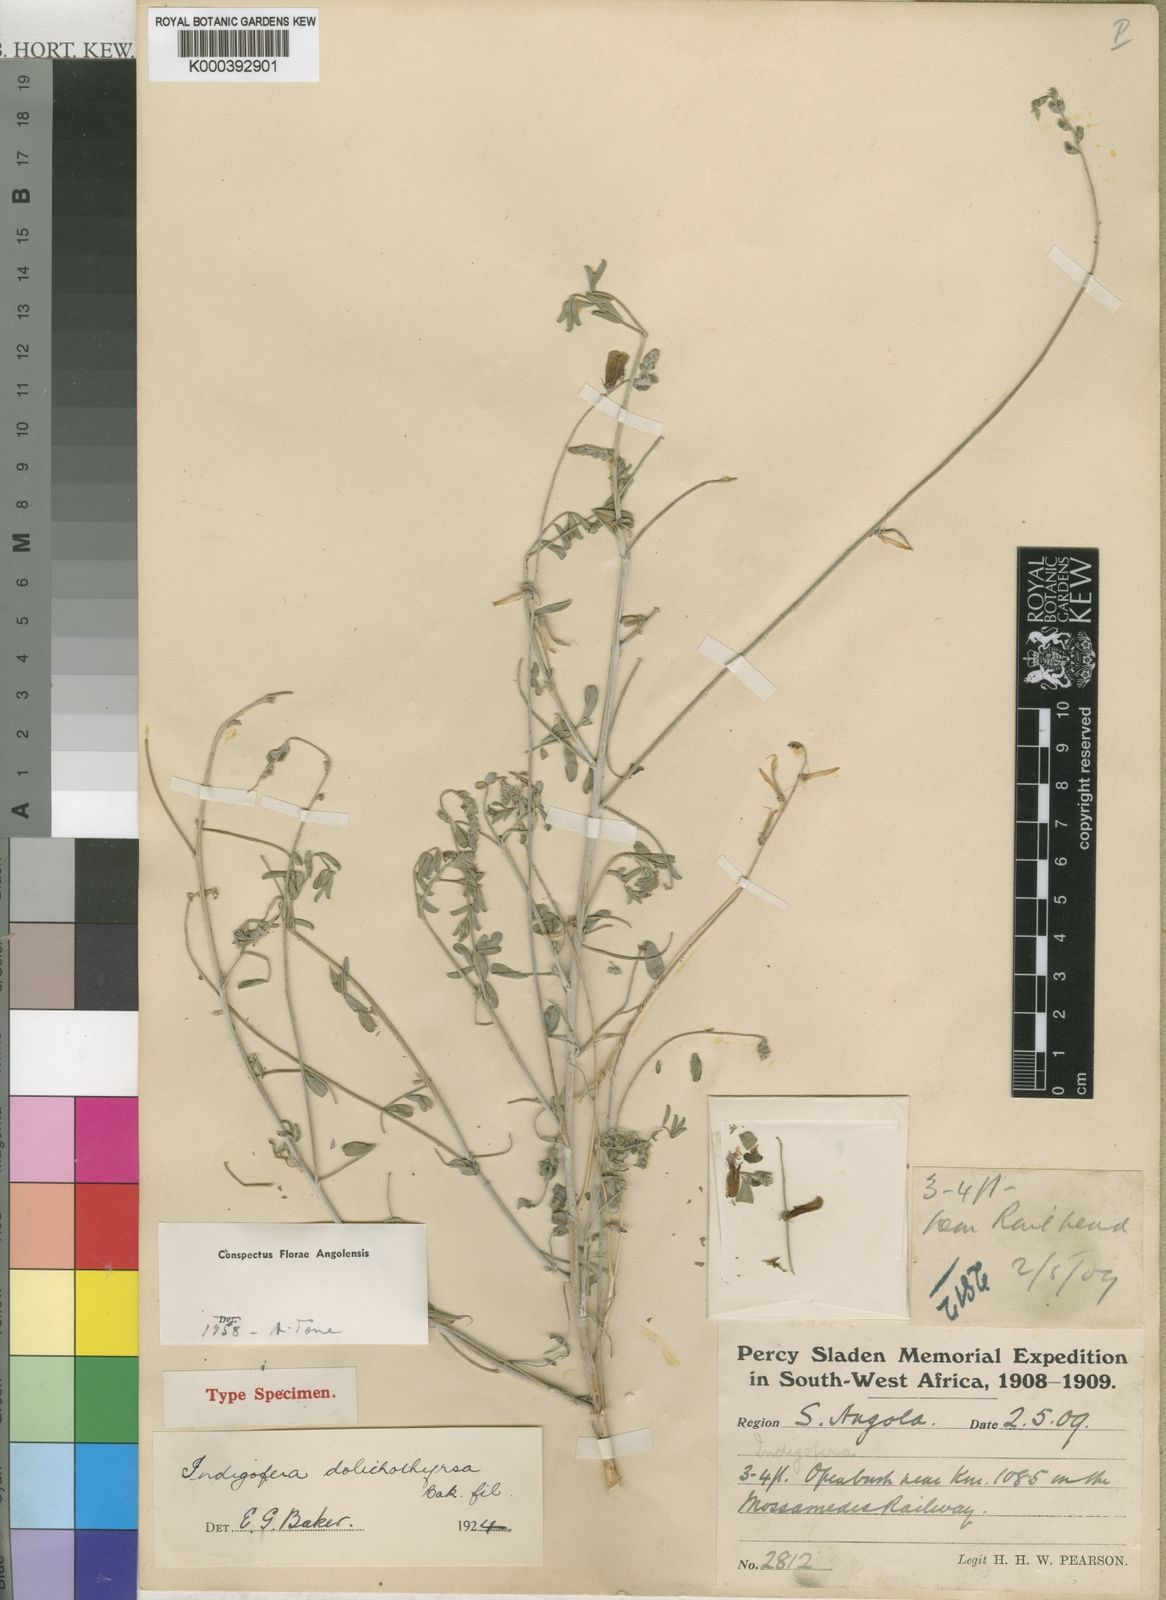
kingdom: Plantae
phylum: Tracheophyta
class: Magnoliopsida
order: Fabales
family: Fabaceae
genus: Indigofera
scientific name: Indigofera heterotricha
